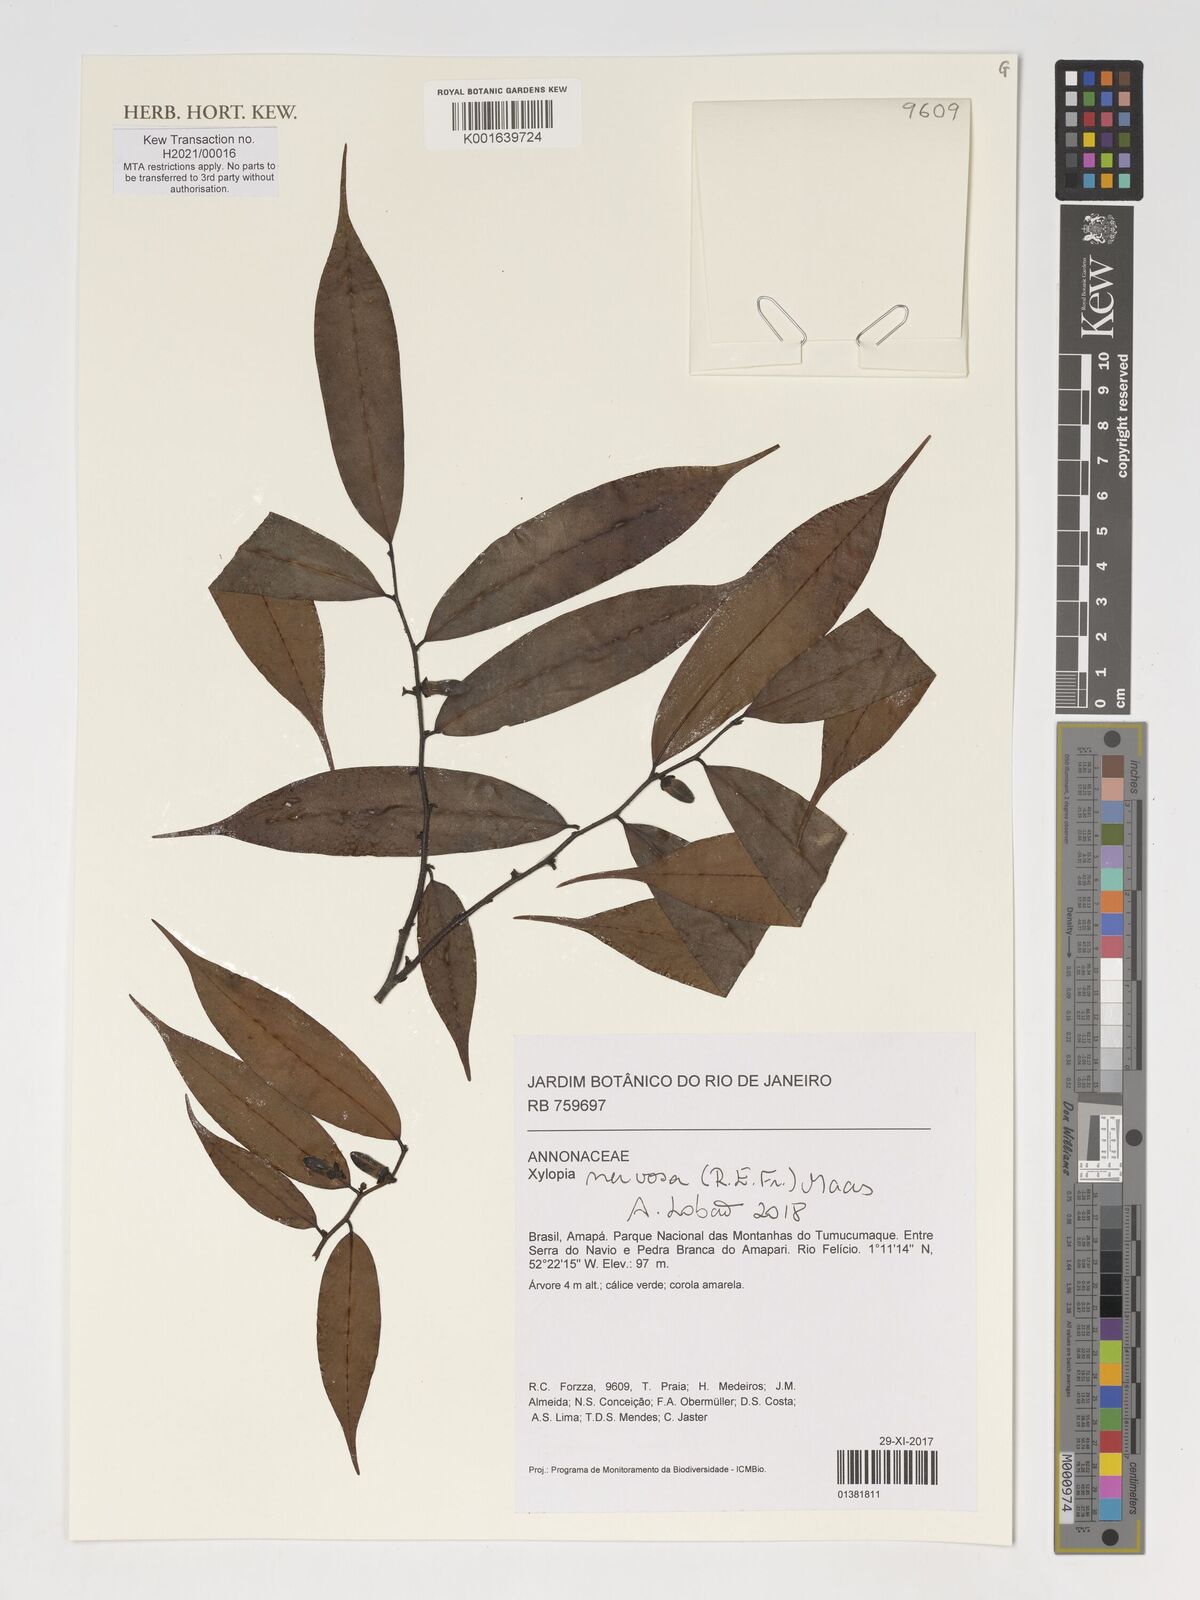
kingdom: Plantae
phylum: Tracheophyta
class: Magnoliopsida
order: Magnoliales
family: Annonaceae
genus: Xylopia
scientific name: Xylopia nervosa
